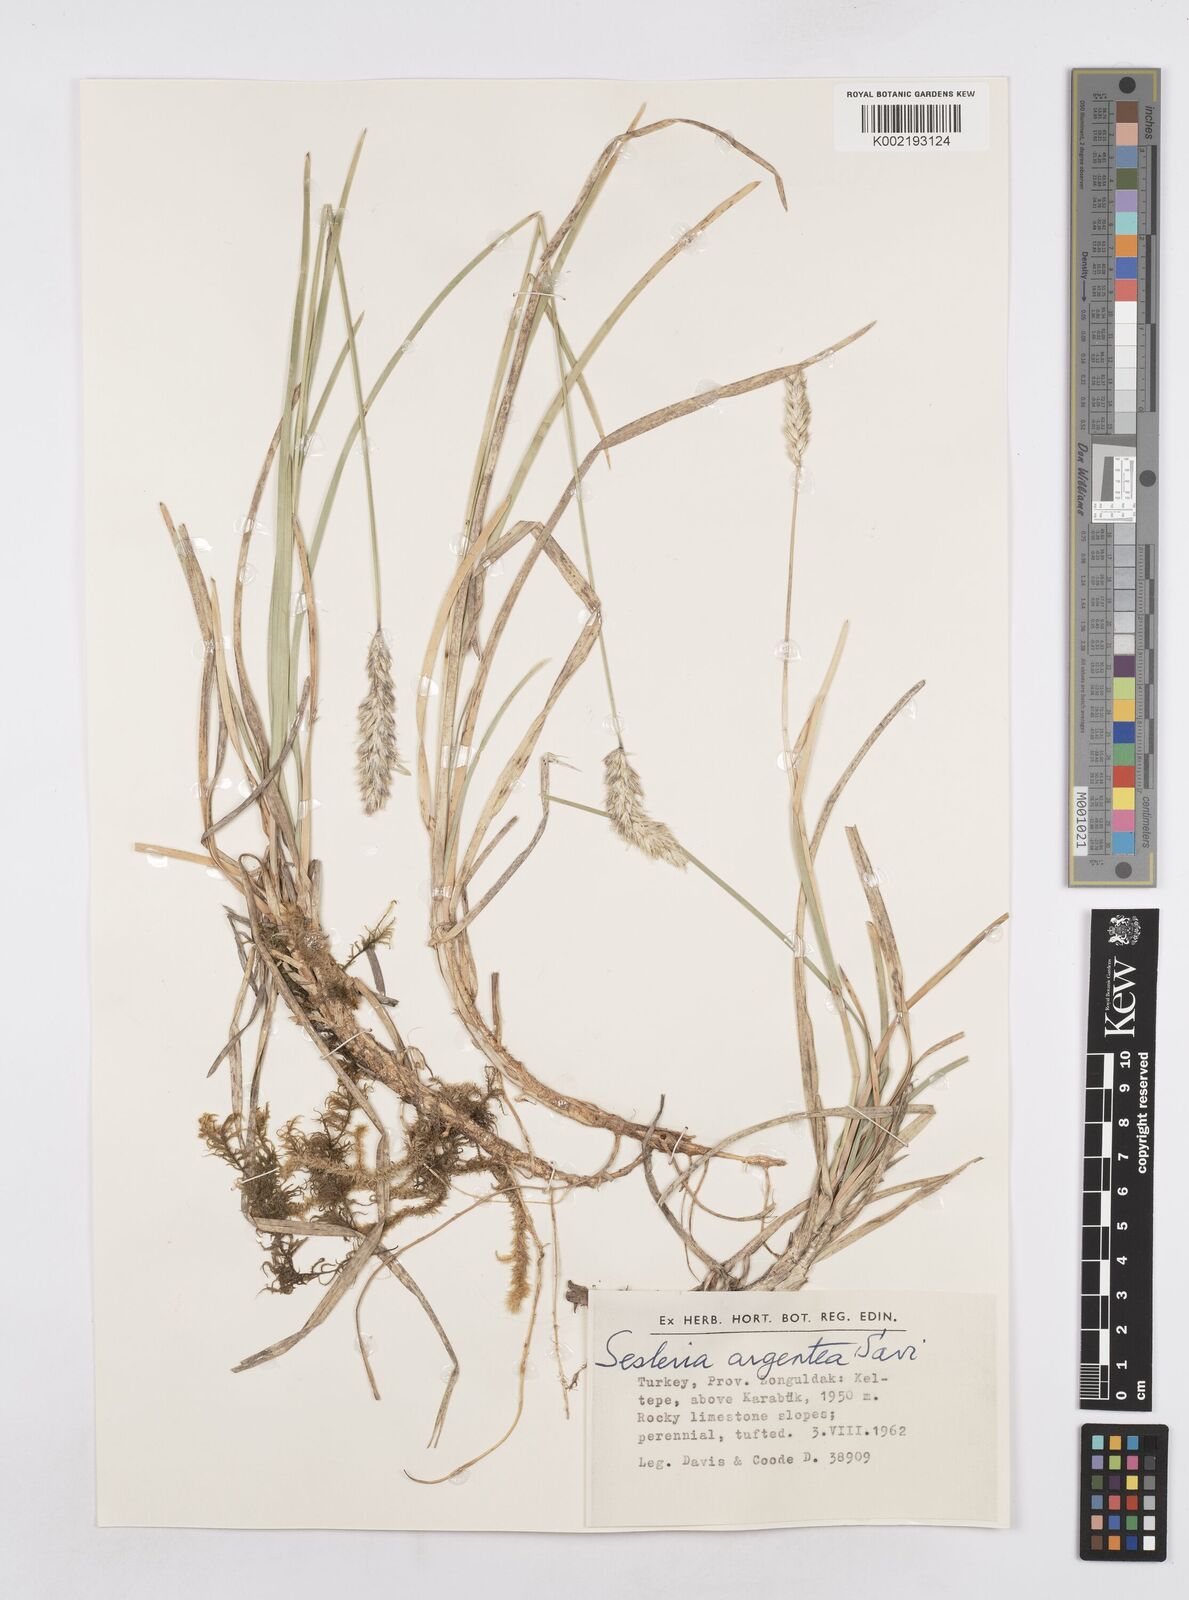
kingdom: Plantae
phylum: Tracheophyta
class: Liliopsida
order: Poales
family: Poaceae
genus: Sesleria
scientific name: Sesleria argentea
